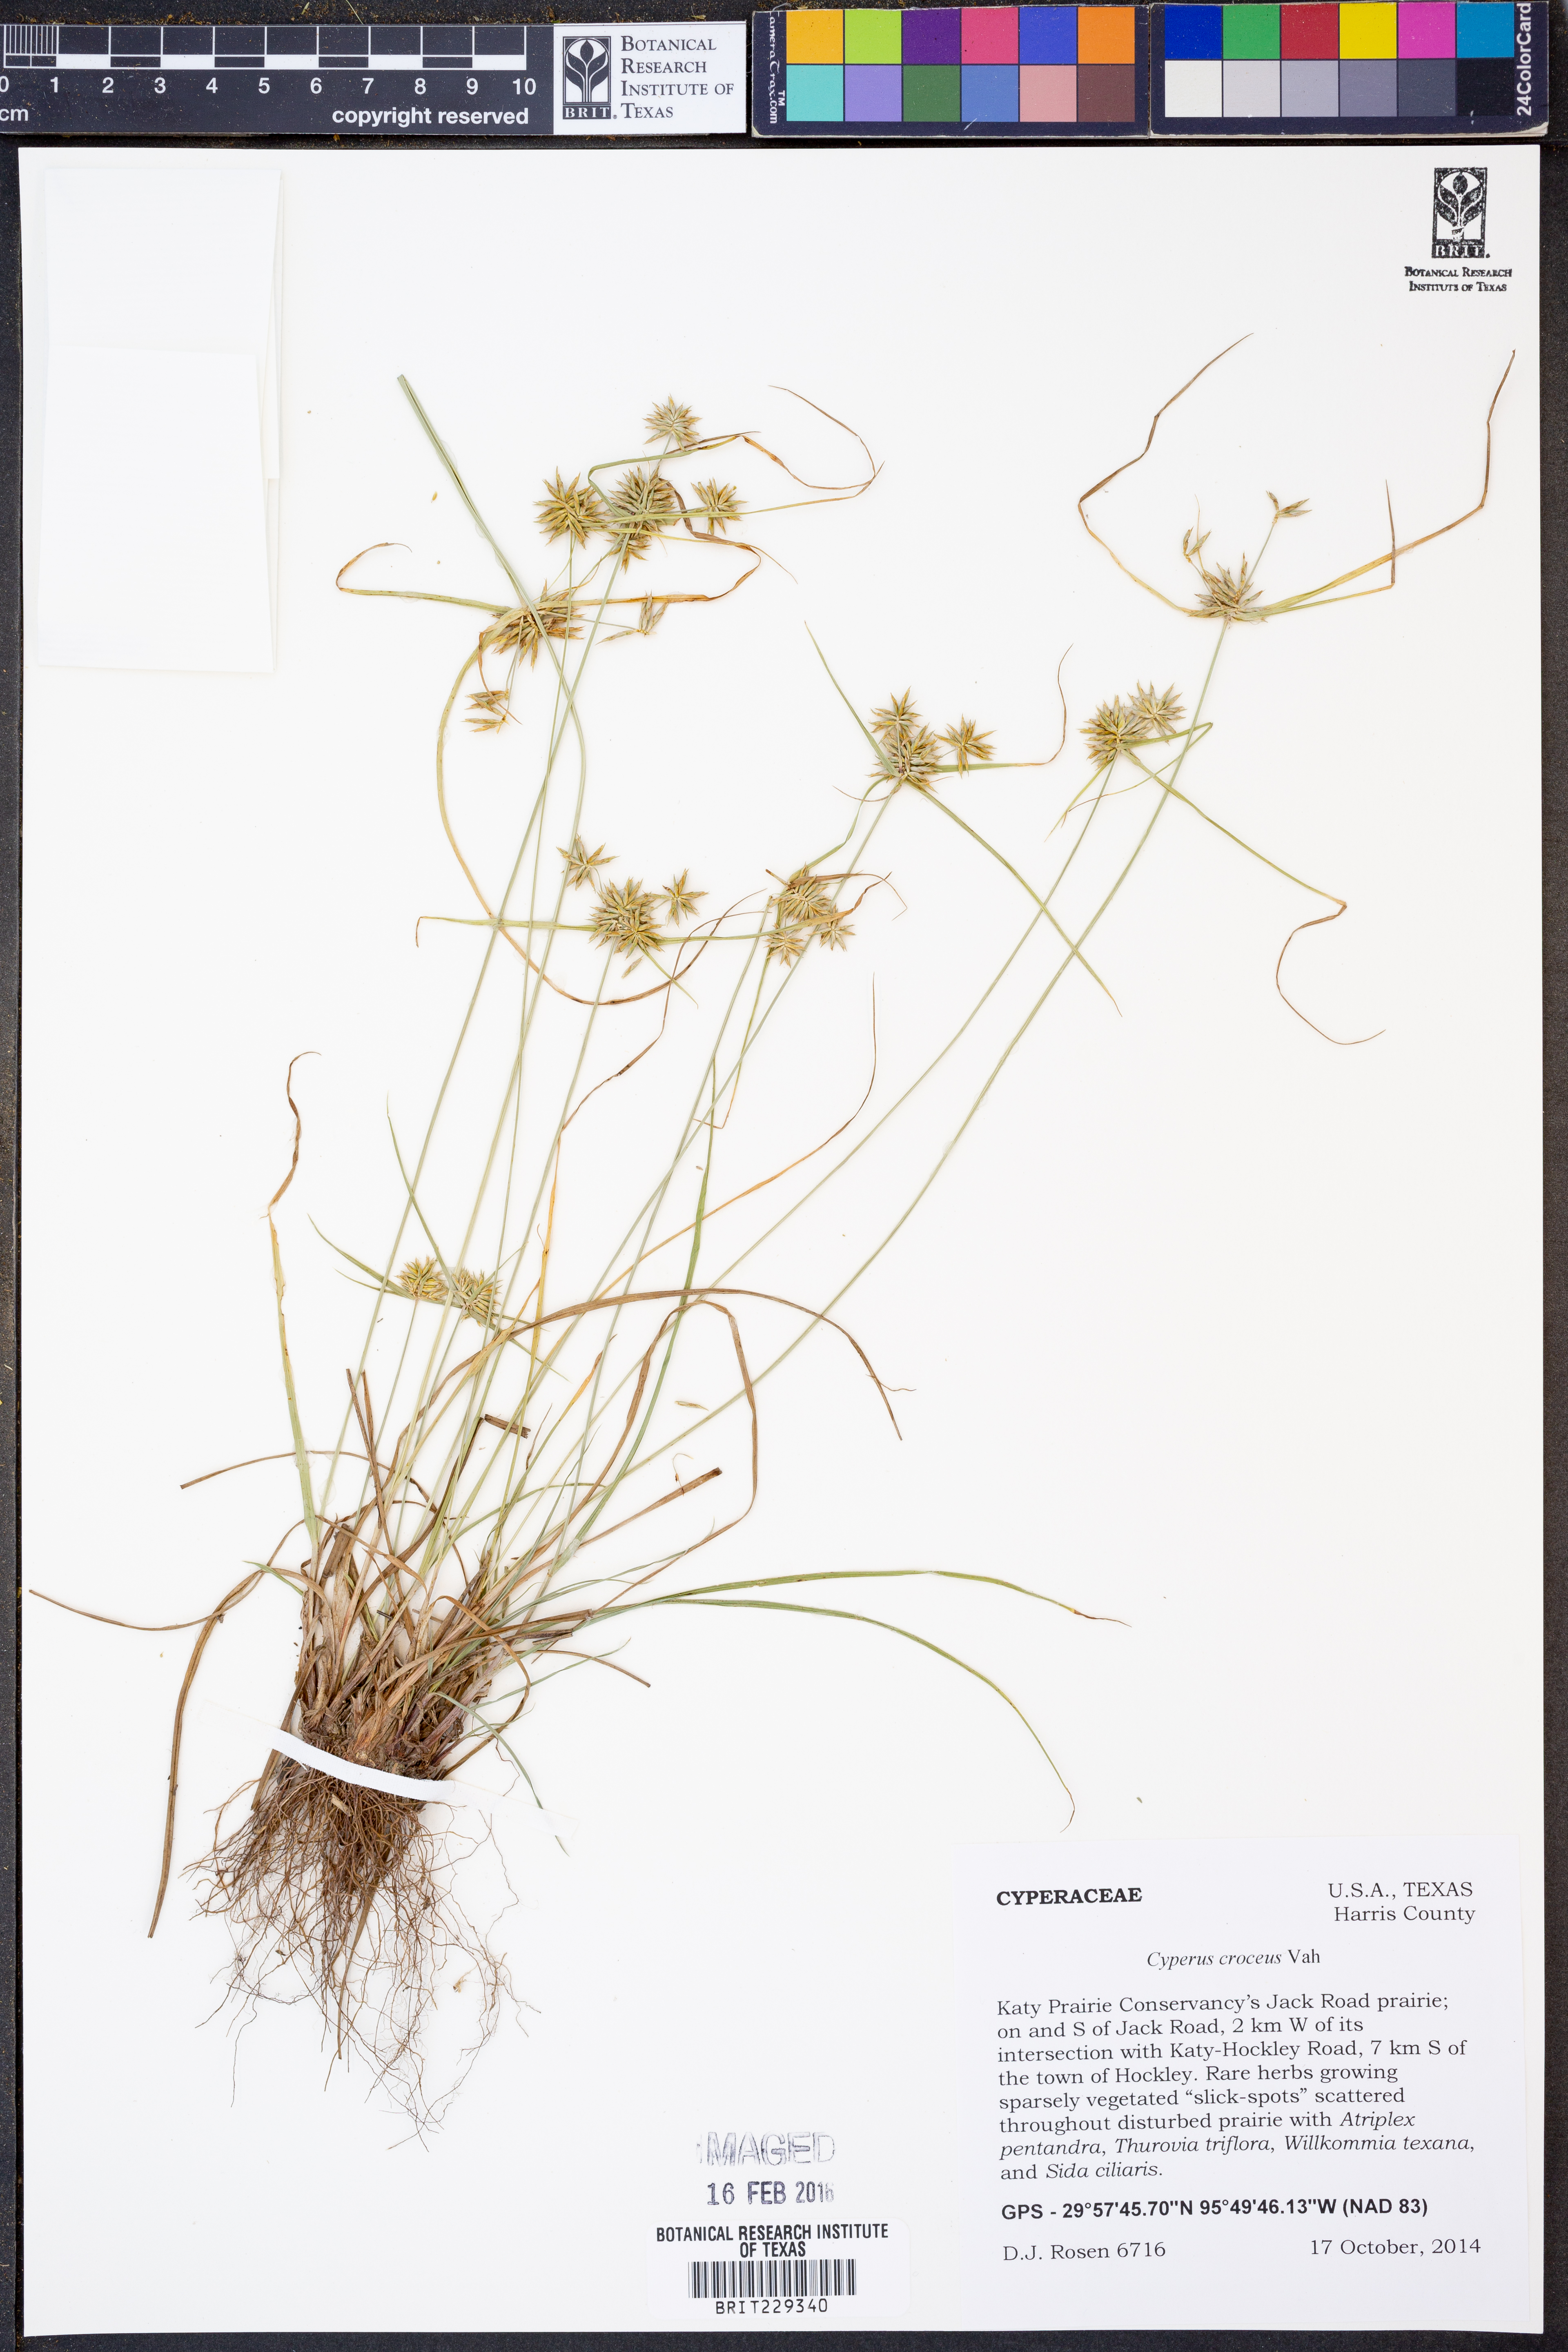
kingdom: Plantae
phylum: Tracheophyta
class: Liliopsida
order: Poales
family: Cyperaceae
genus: Cyperus
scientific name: Cyperus croceus
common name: Baldwin's flatsedge
